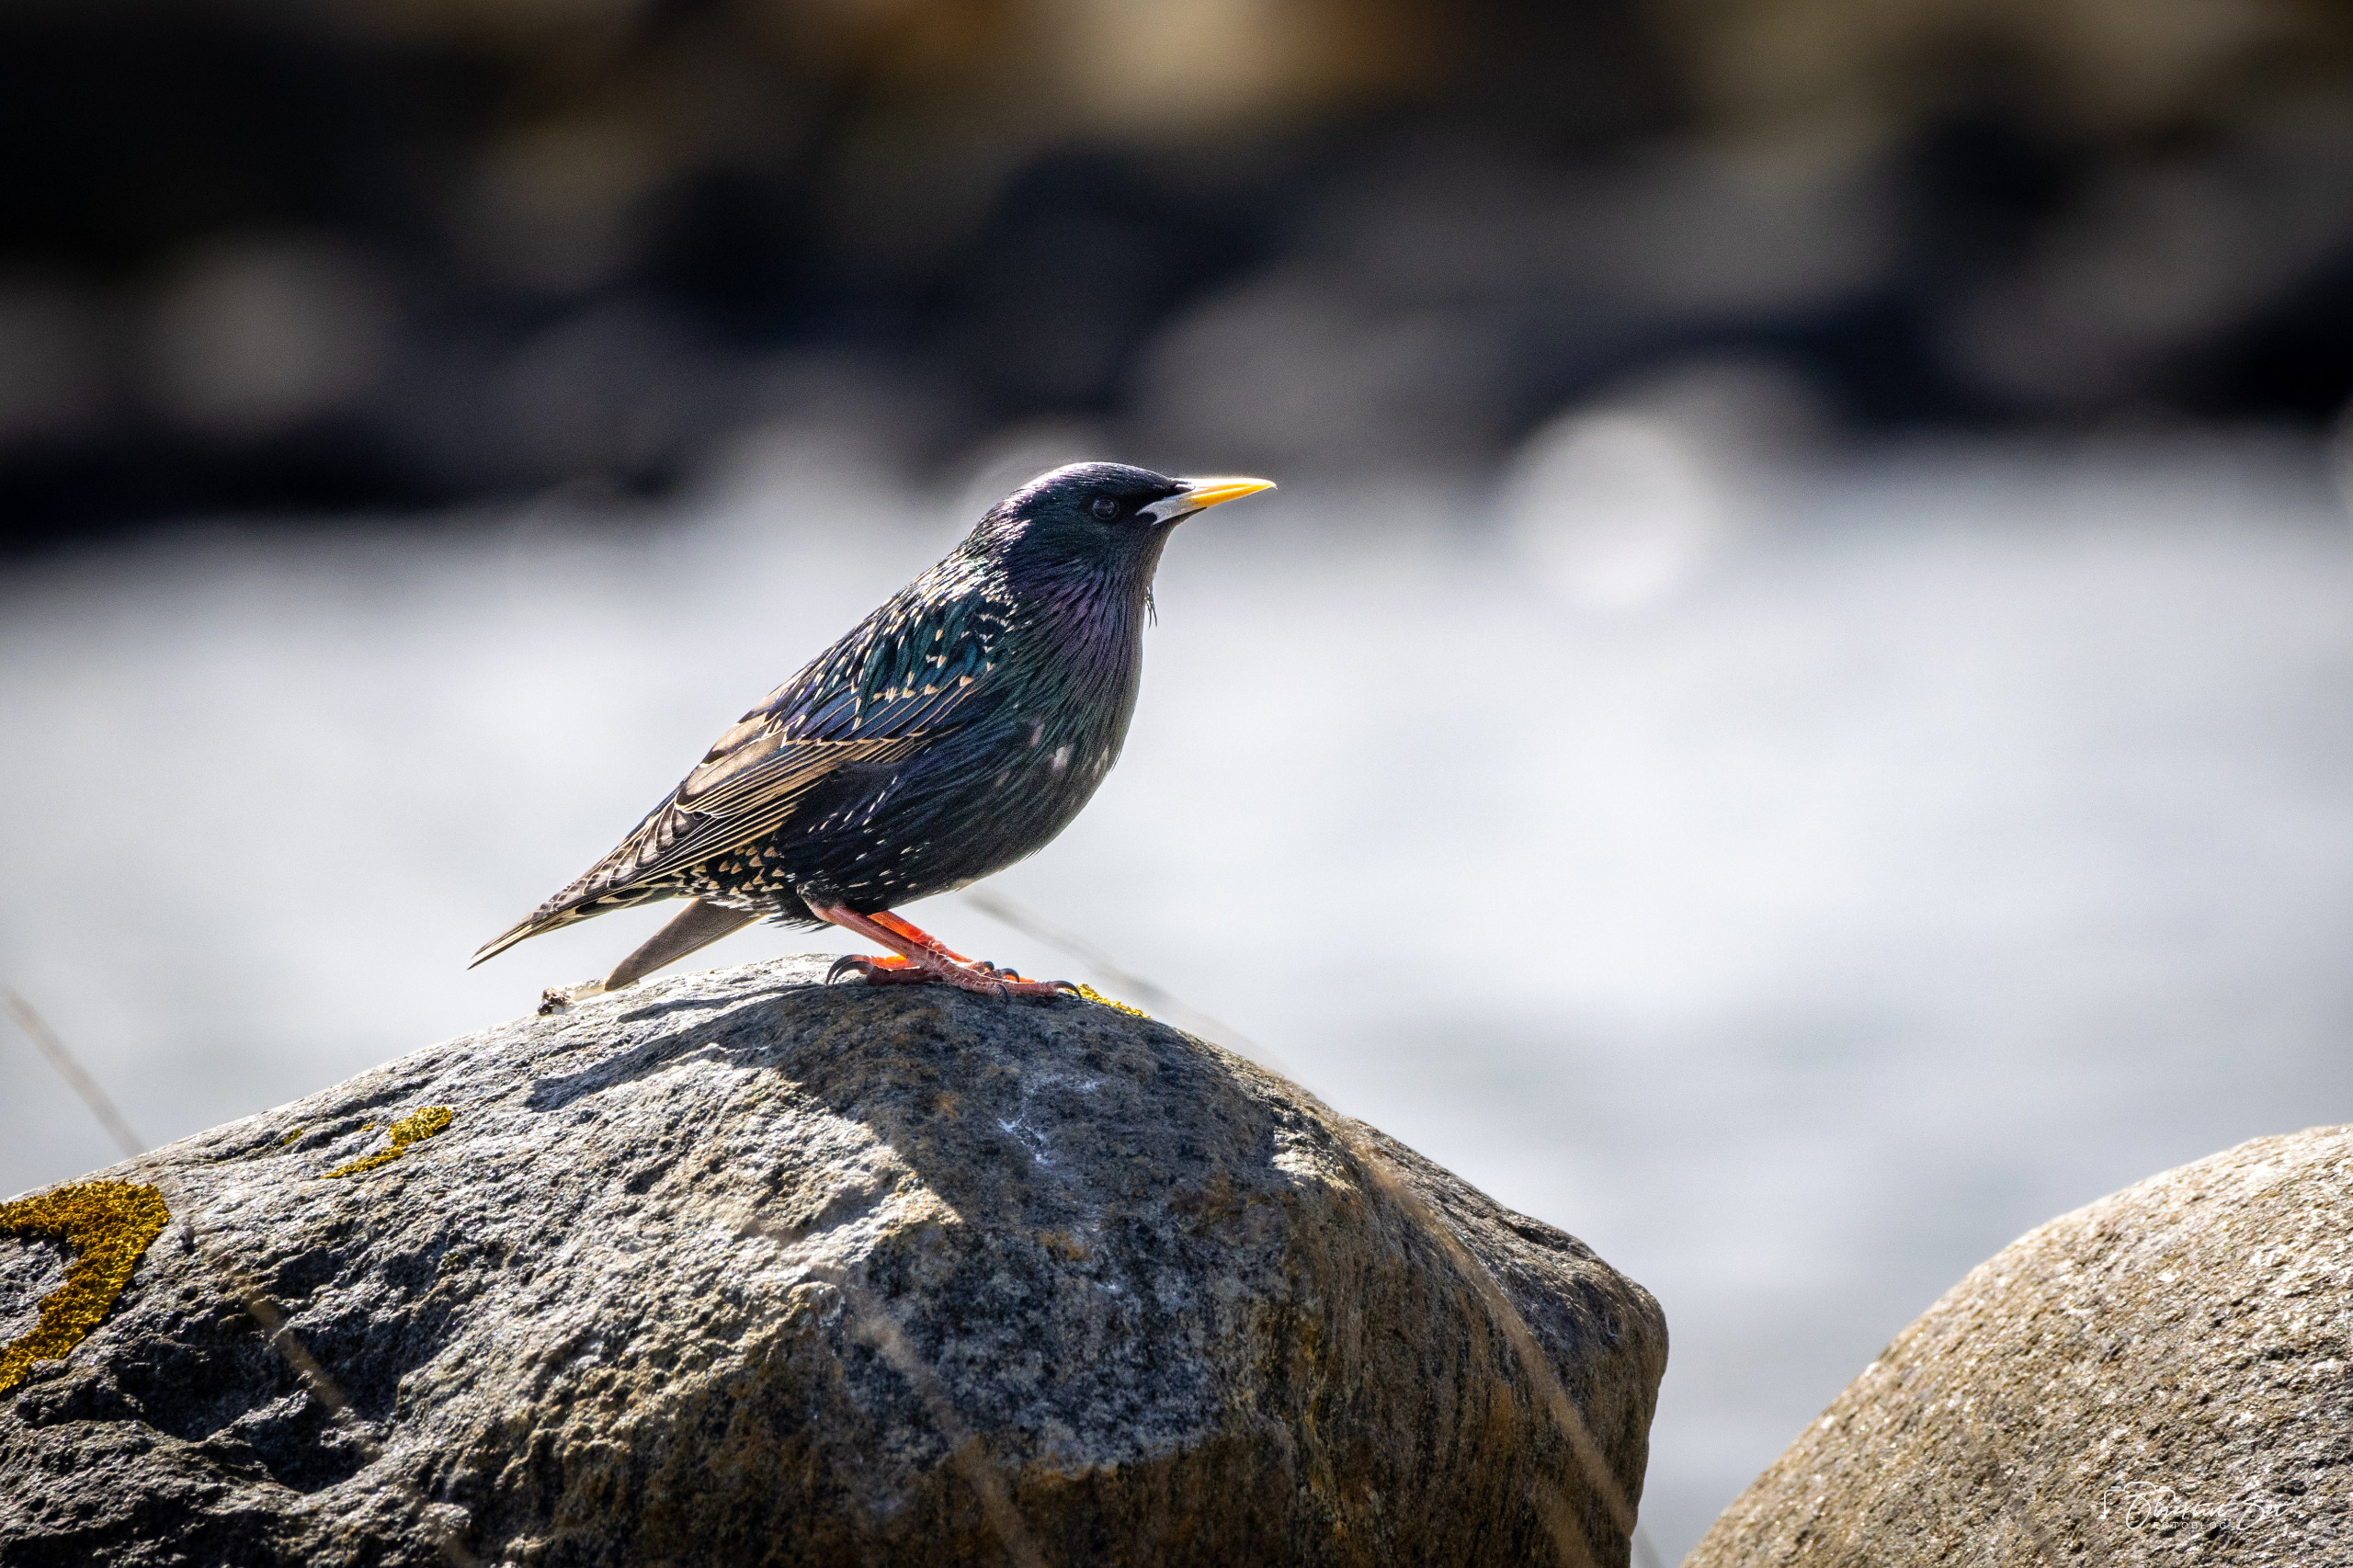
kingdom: Animalia
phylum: Chordata
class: Aves
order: Passeriformes
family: Sturnidae
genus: Sturnus
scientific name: Sturnus vulgaris
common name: Stær
